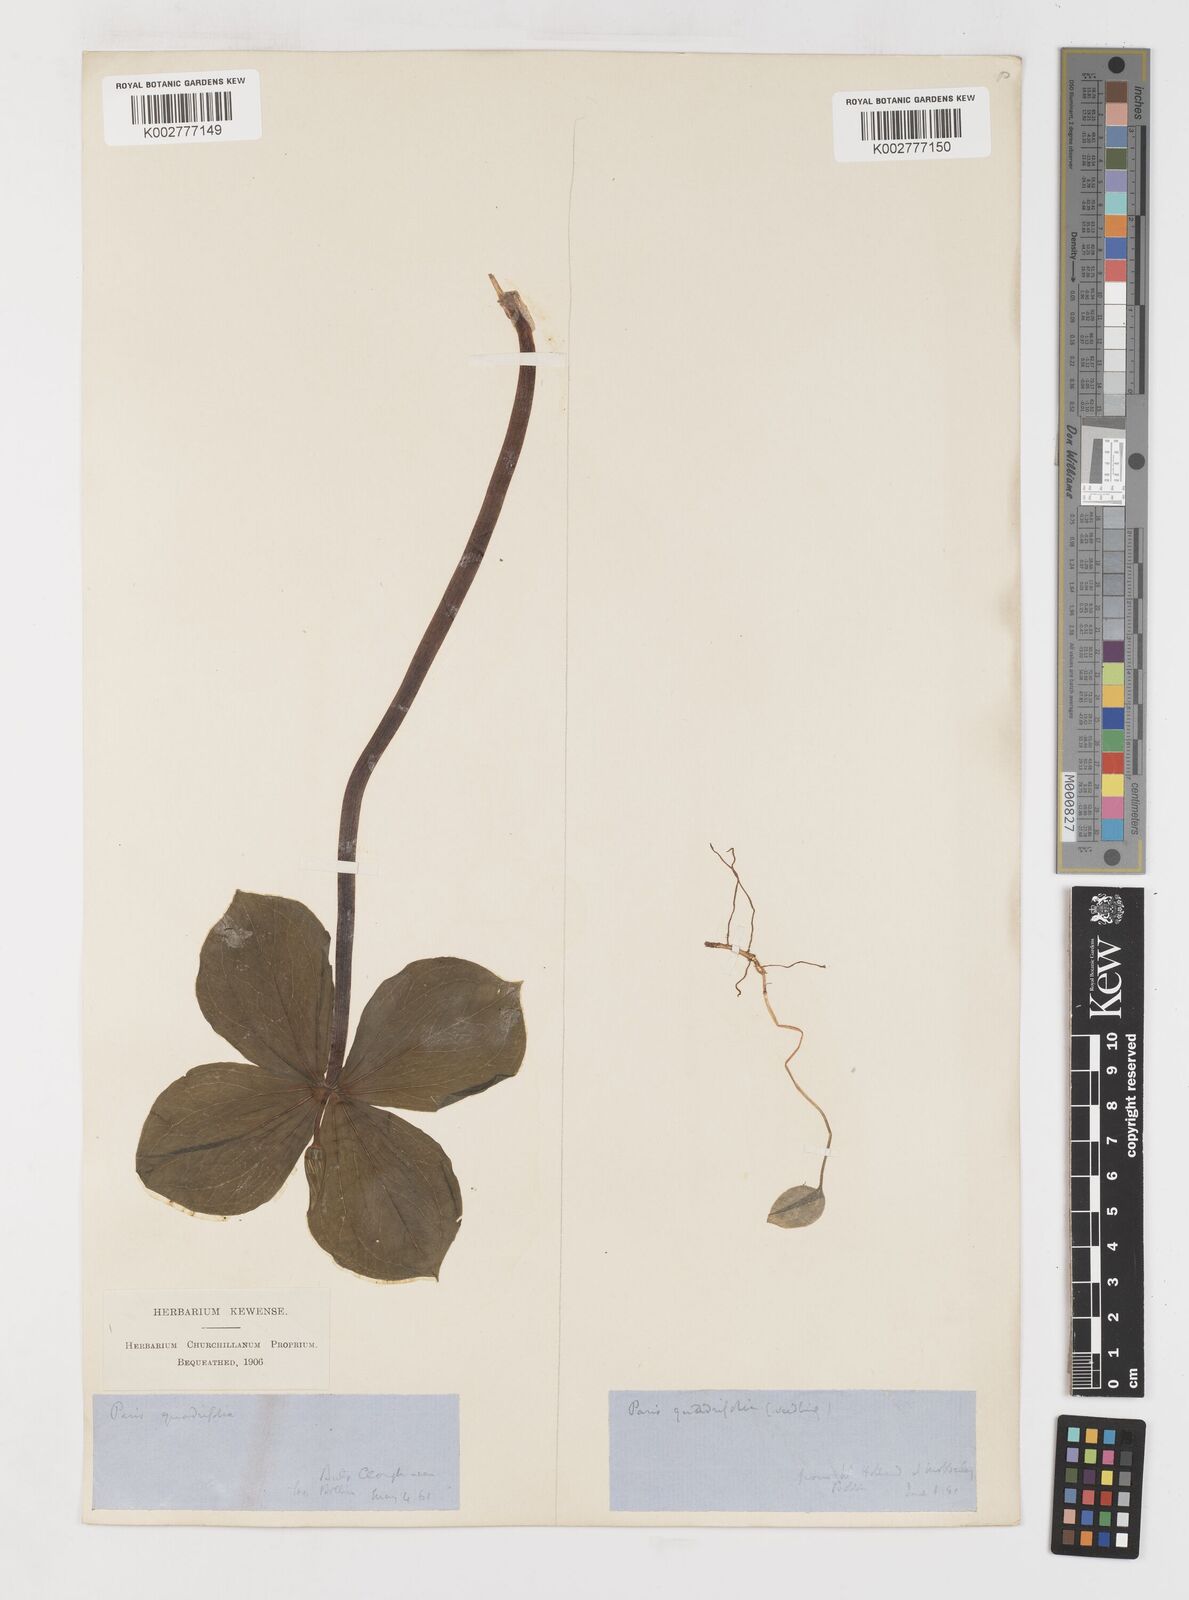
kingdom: Plantae
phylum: Tracheophyta
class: Liliopsida
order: Liliales
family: Melanthiaceae
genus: Paris
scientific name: Paris quadrifolia
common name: Herb-paris
